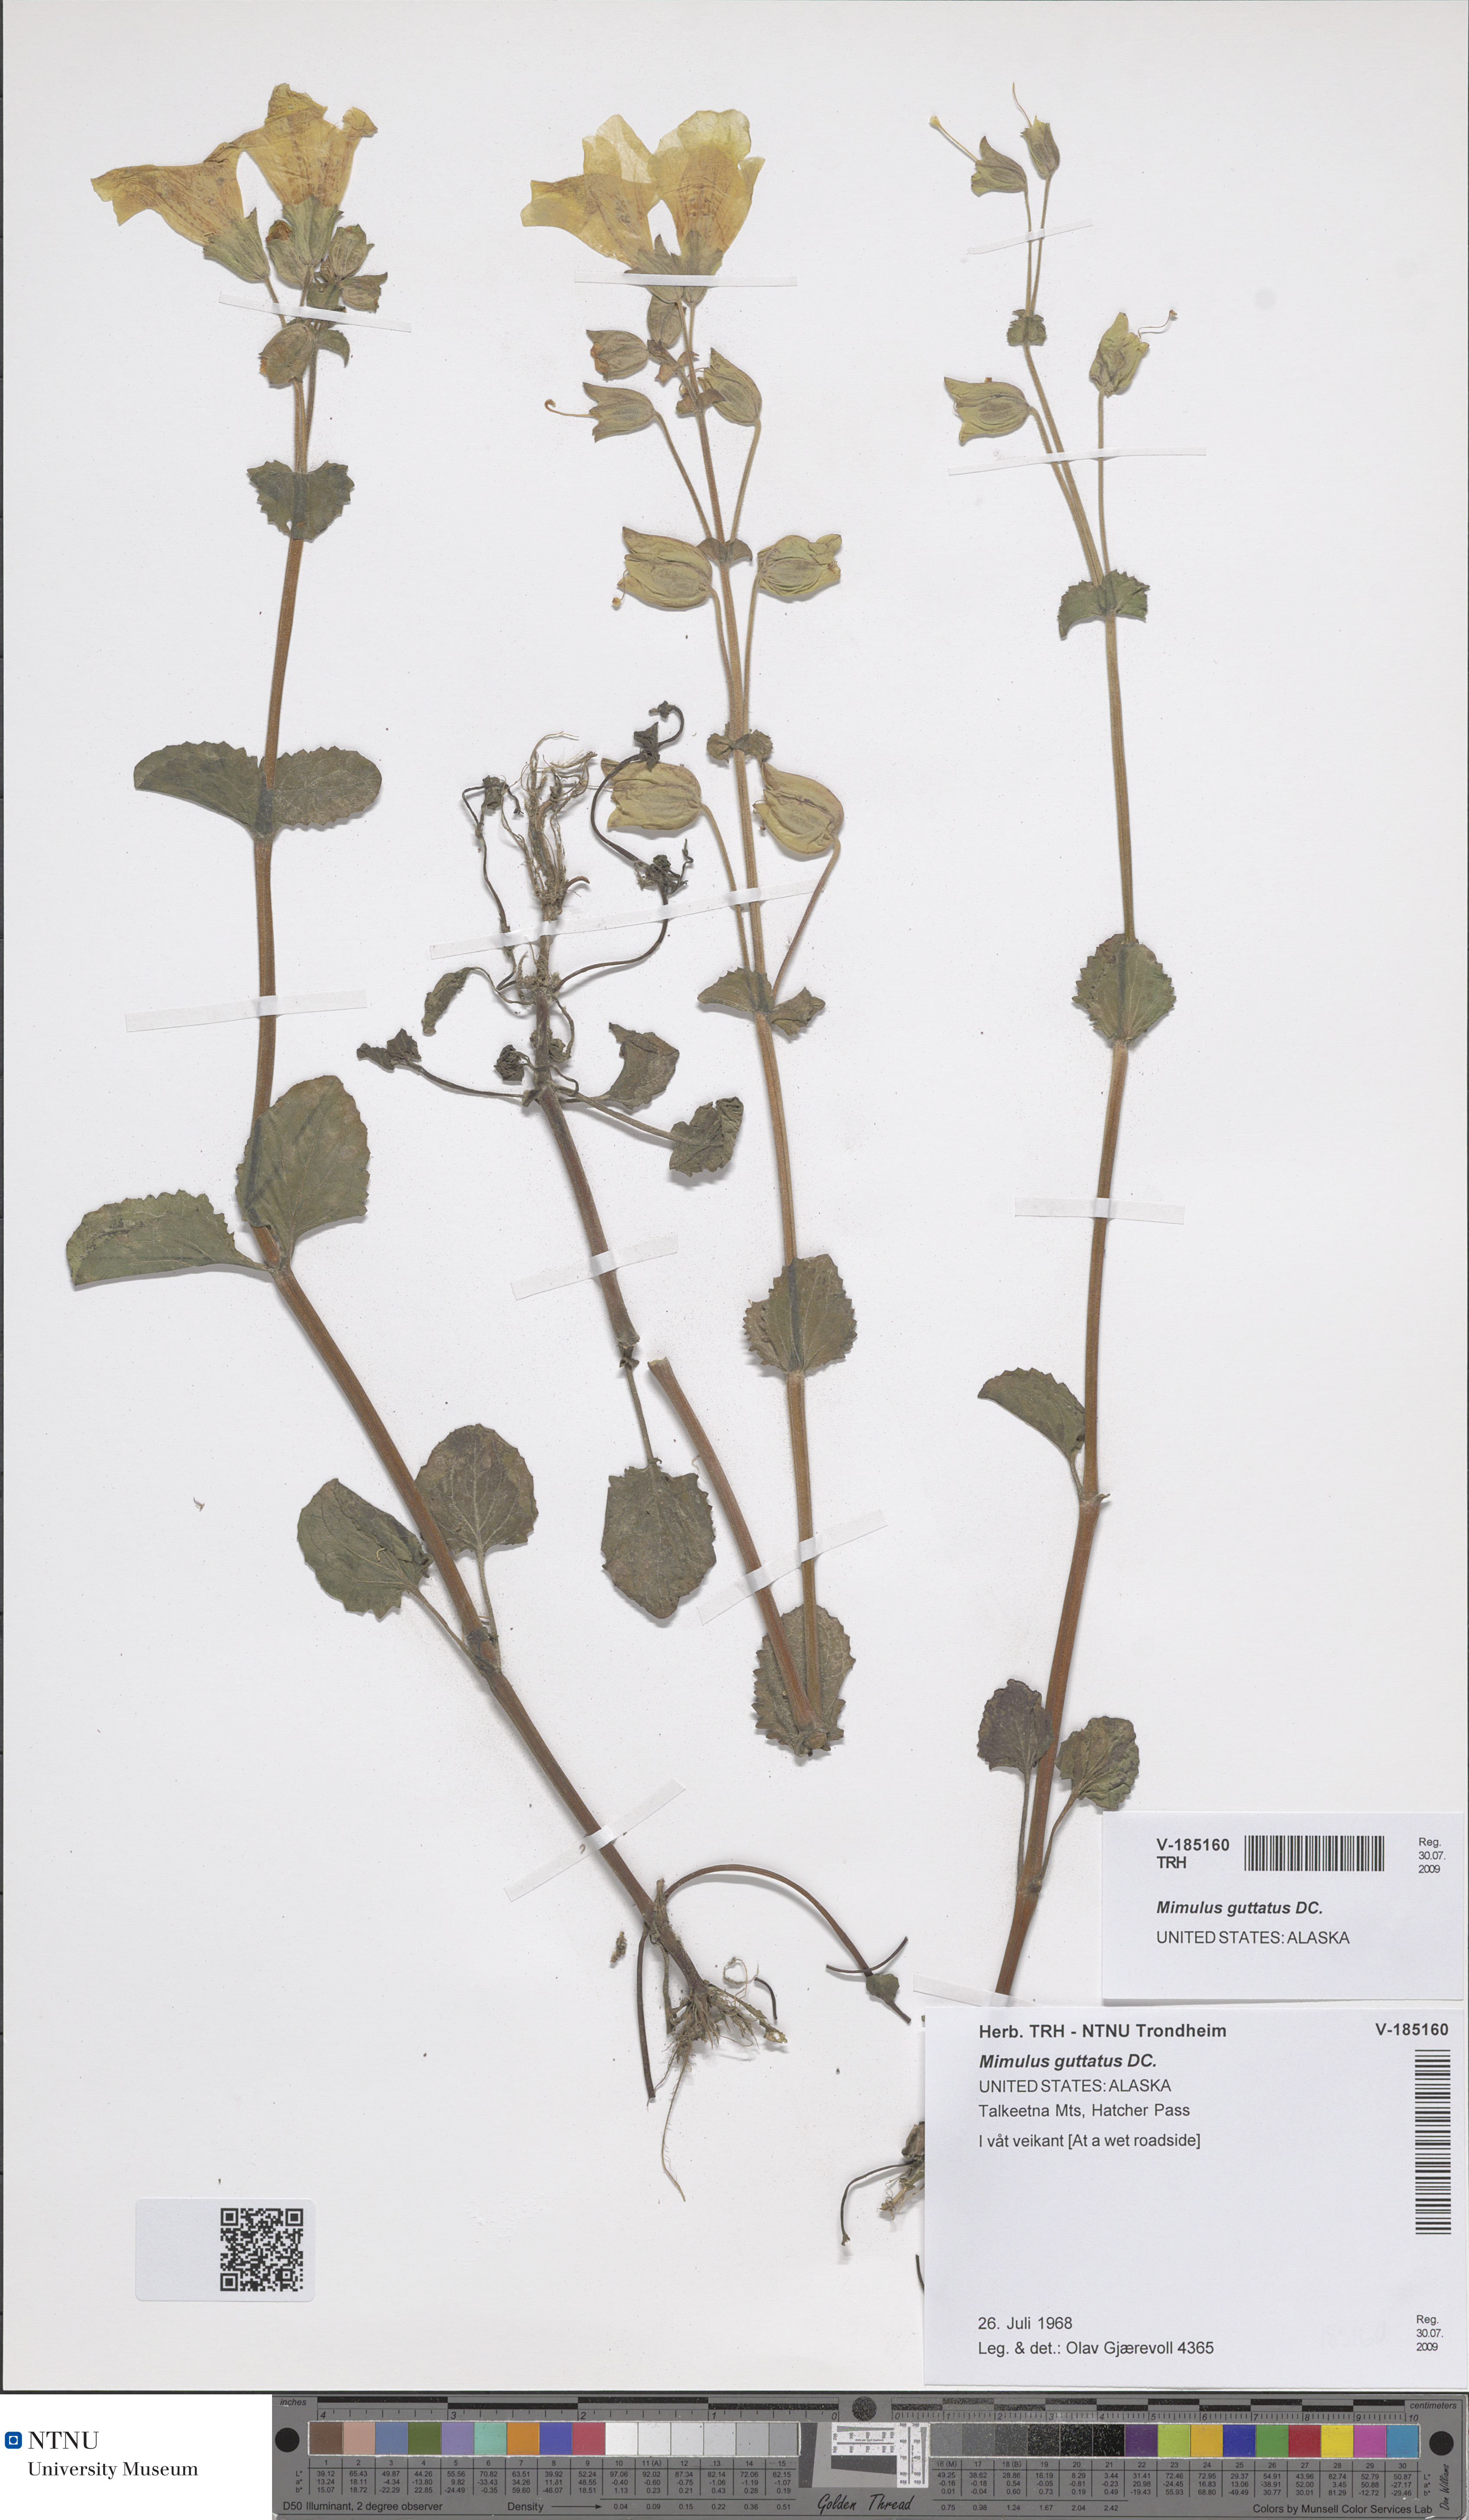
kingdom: Plantae
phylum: Tracheophyta
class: Magnoliopsida
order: Lamiales
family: Phrymaceae
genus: Erythranthe
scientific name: Erythranthe guttata
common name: Monkeyflower
